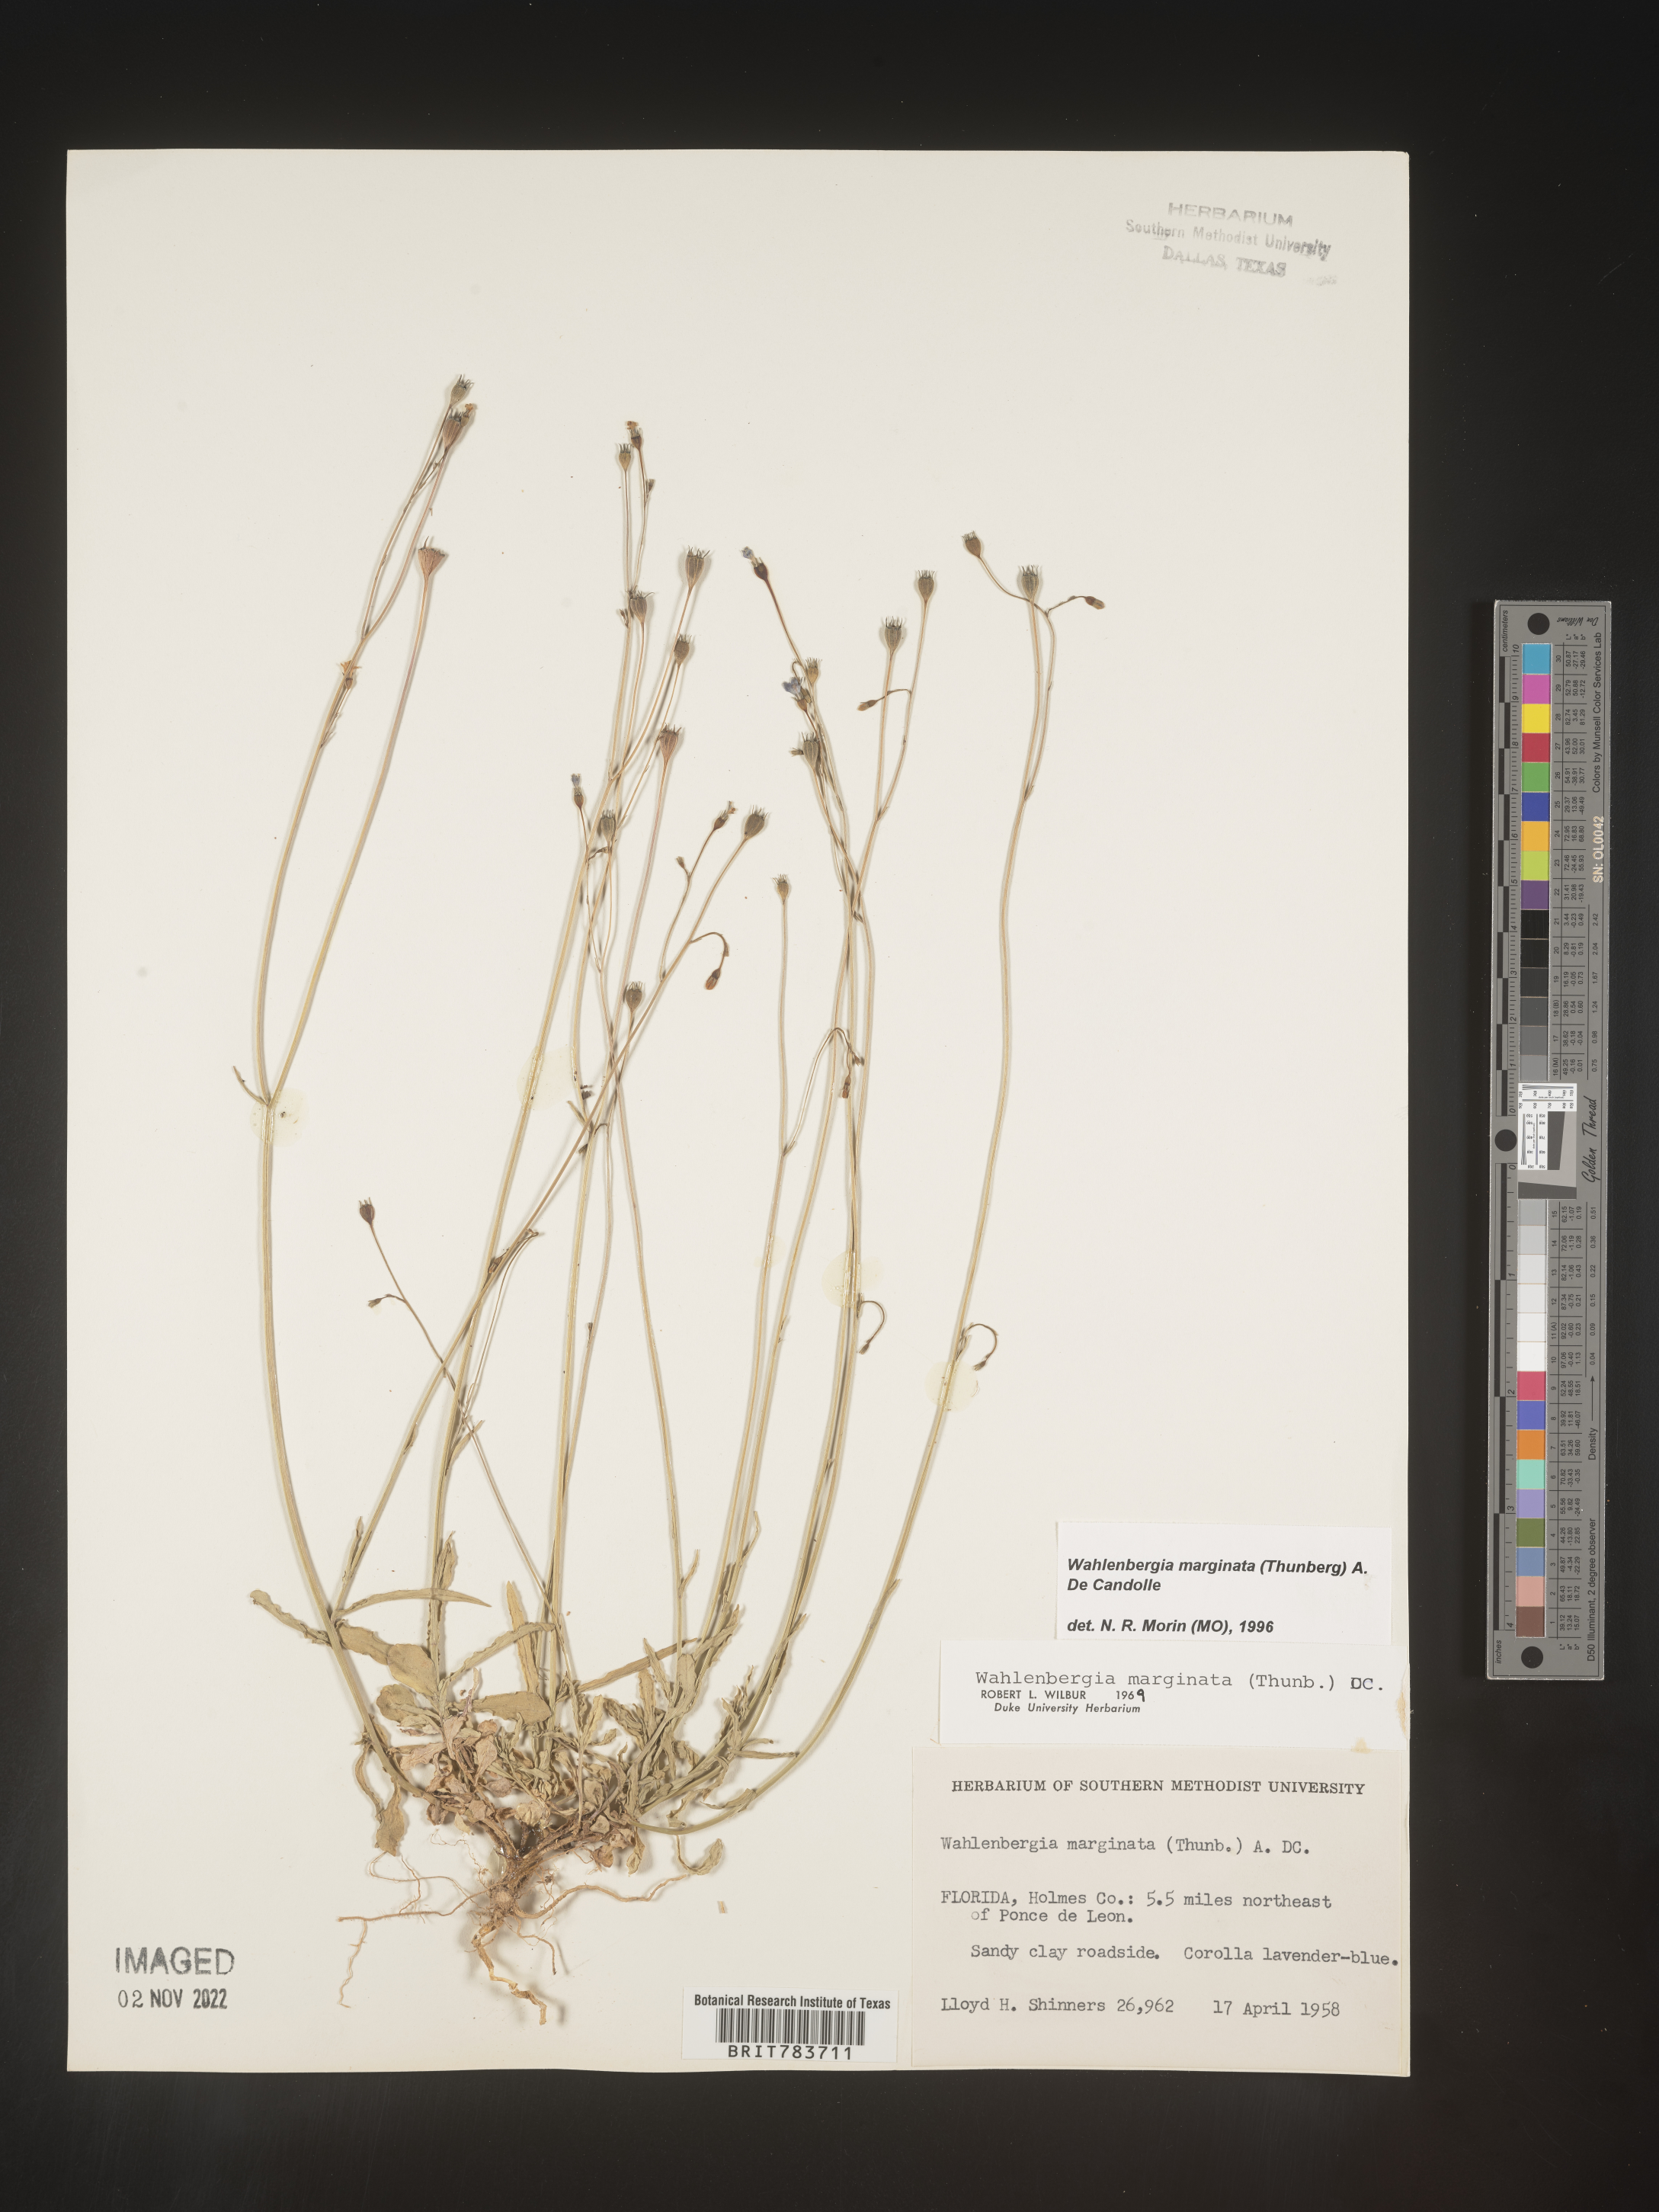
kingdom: Plantae
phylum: Tracheophyta
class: Magnoliopsida
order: Asterales
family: Campanulaceae
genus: Wahlenbergia
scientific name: Wahlenbergia marginata
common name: Southern rockbell
